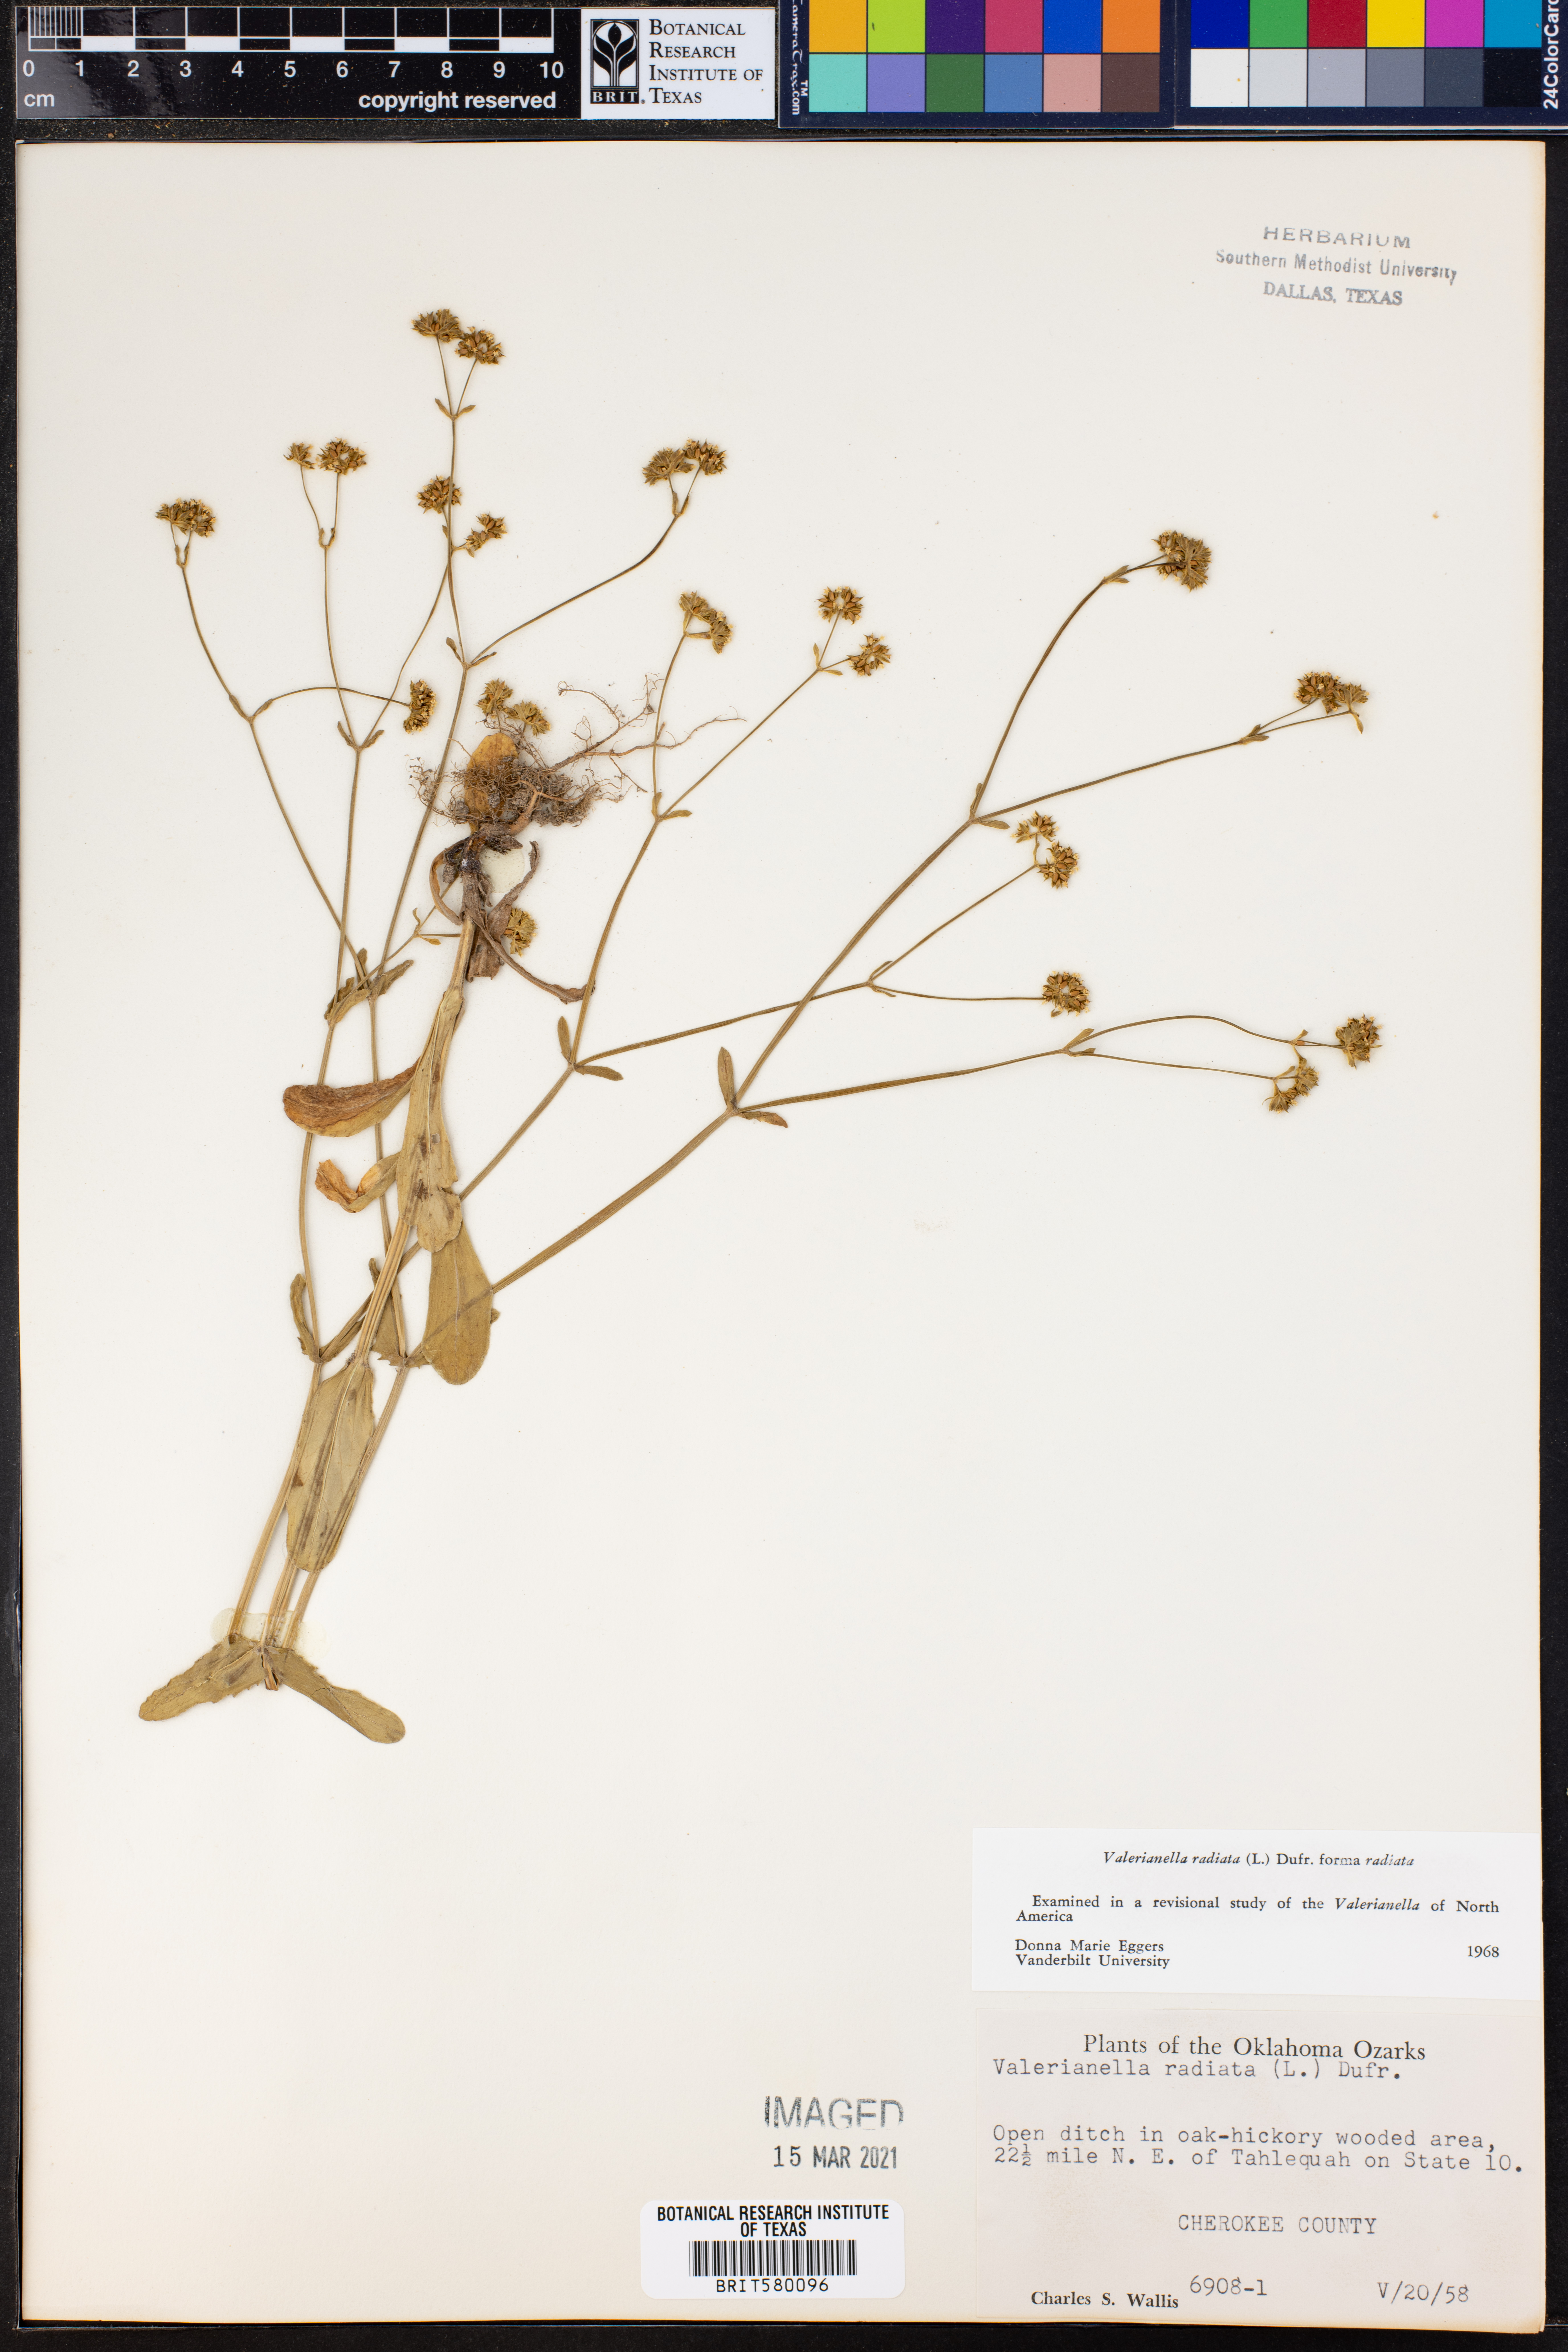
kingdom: Plantae
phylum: Tracheophyta
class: Magnoliopsida
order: Dipsacales
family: Caprifoliaceae
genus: Valerianella
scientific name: Valerianella radiata
